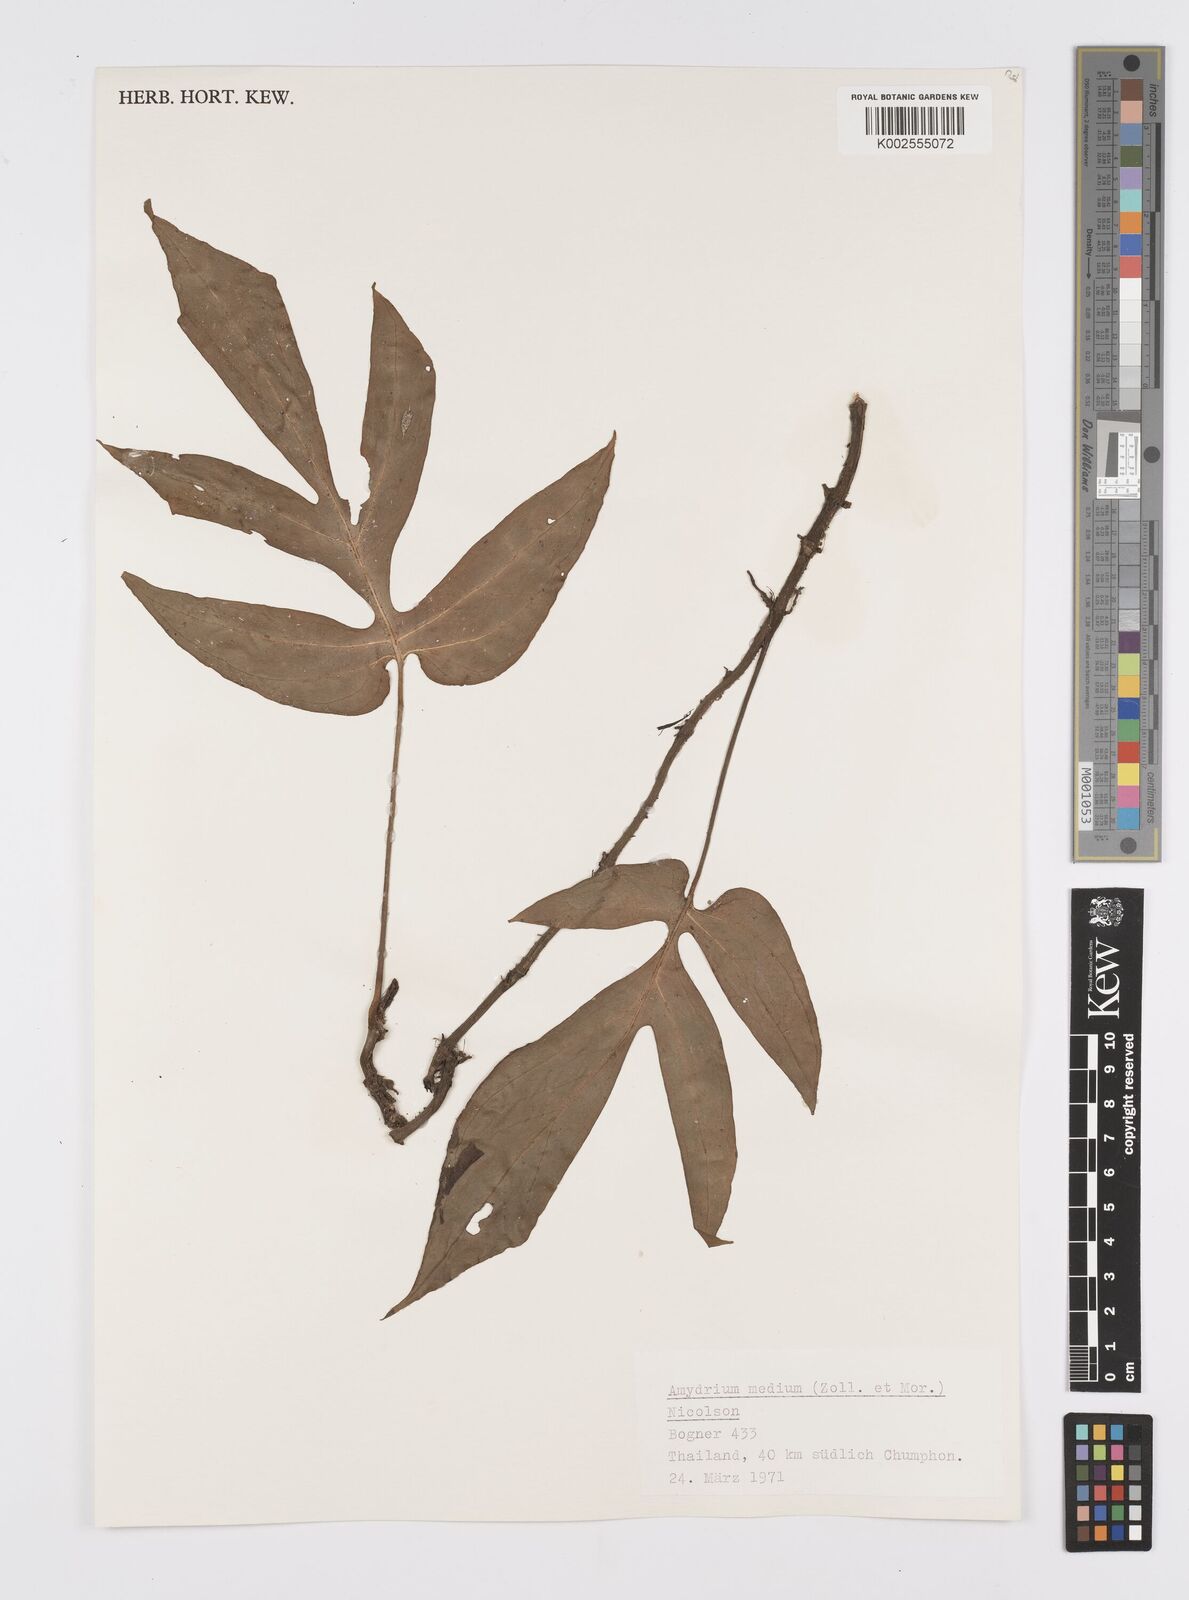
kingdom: Plantae
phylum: Tracheophyta
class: Liliopsida
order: Alismatales
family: Araceae
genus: Amydrium
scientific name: Amydrium medium
